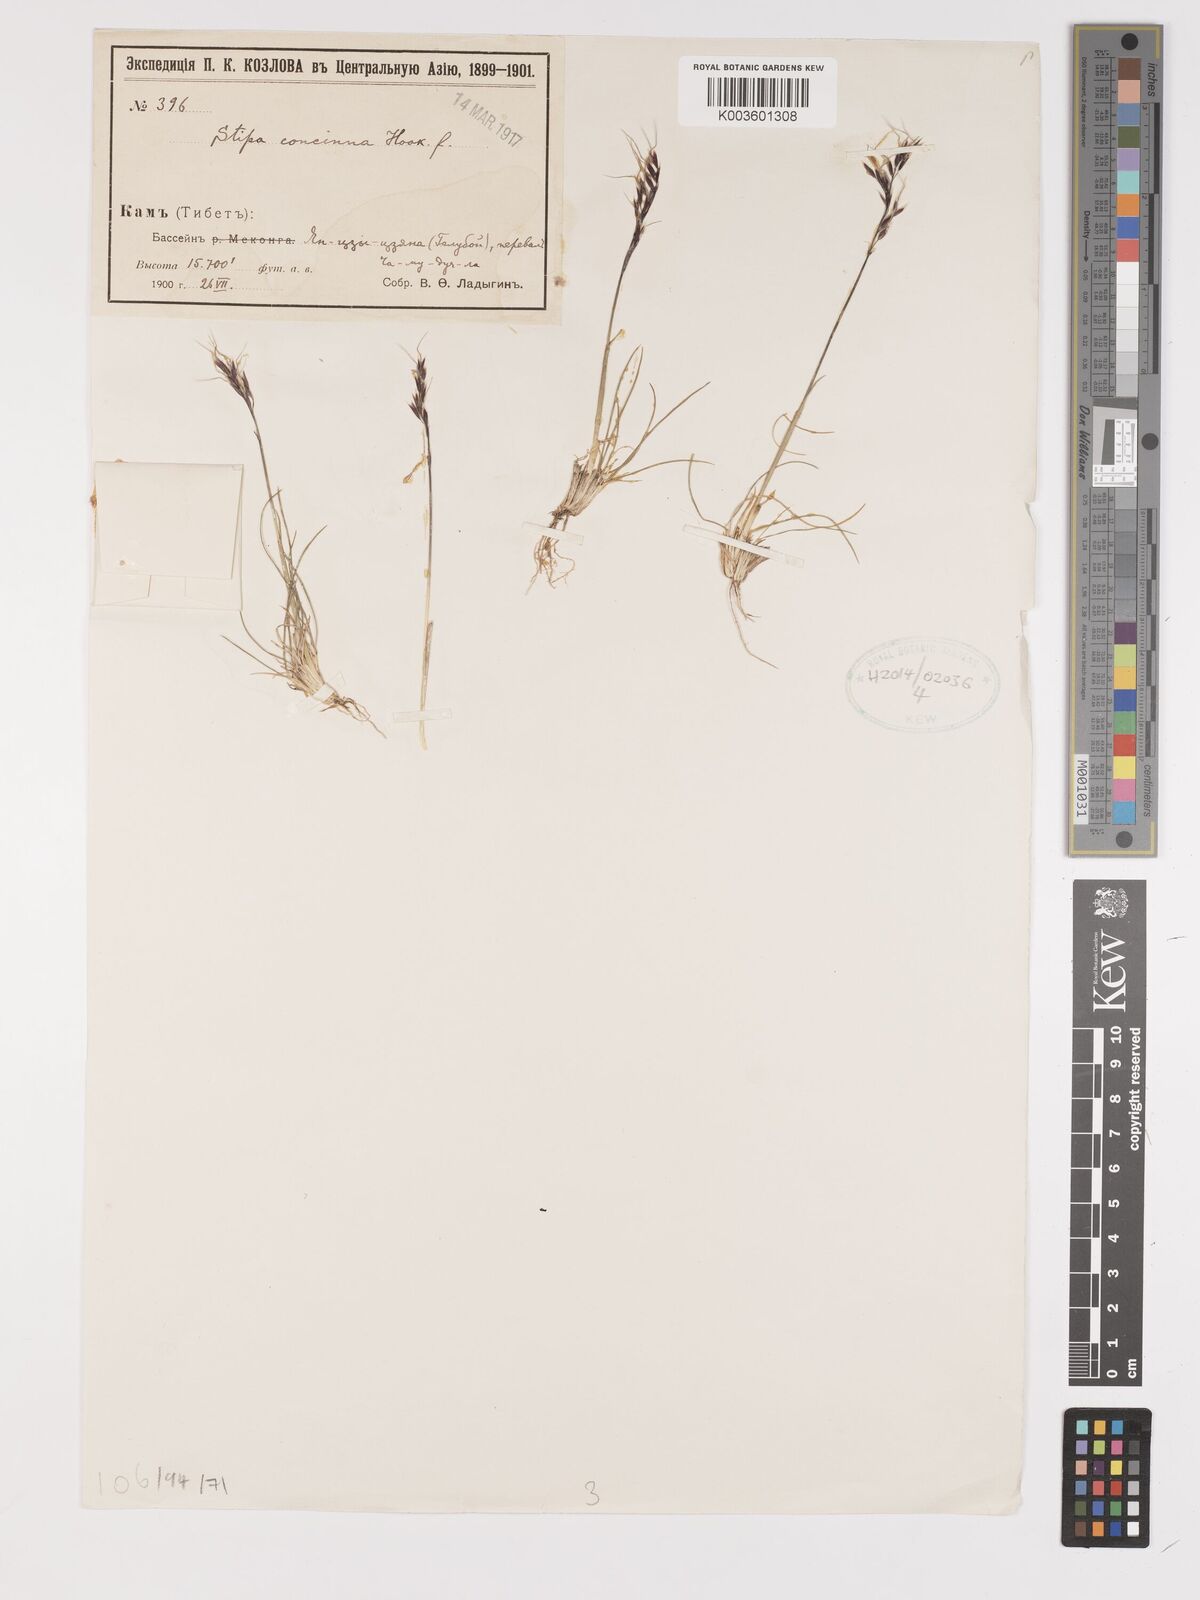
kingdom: Plantae
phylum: Tracheophyta
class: Liliopsida
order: Poales
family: Poaceae
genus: Ptilagrostis
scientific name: Ptilagrostis concinna
